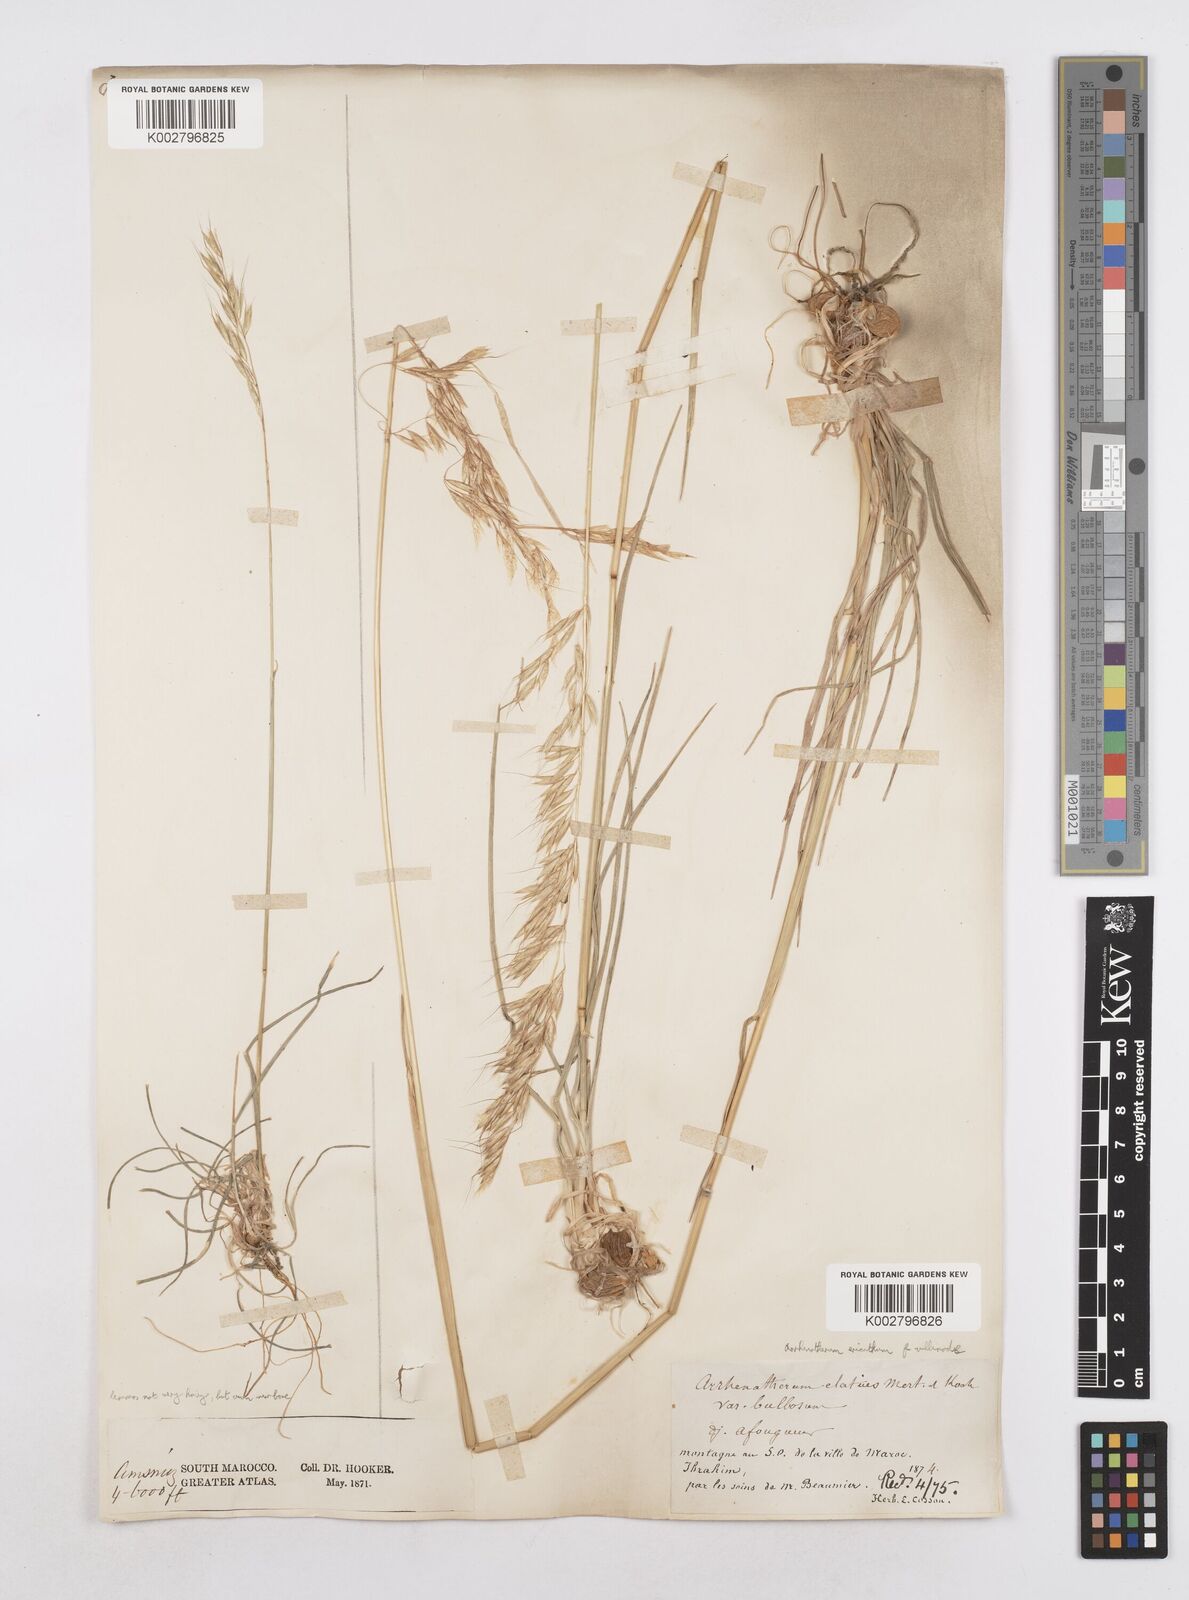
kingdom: Plantae
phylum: Tracheophyta
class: Liliopsida
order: Poales
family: Poaceae
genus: Arrhenatherum
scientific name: Arrhenatherum
